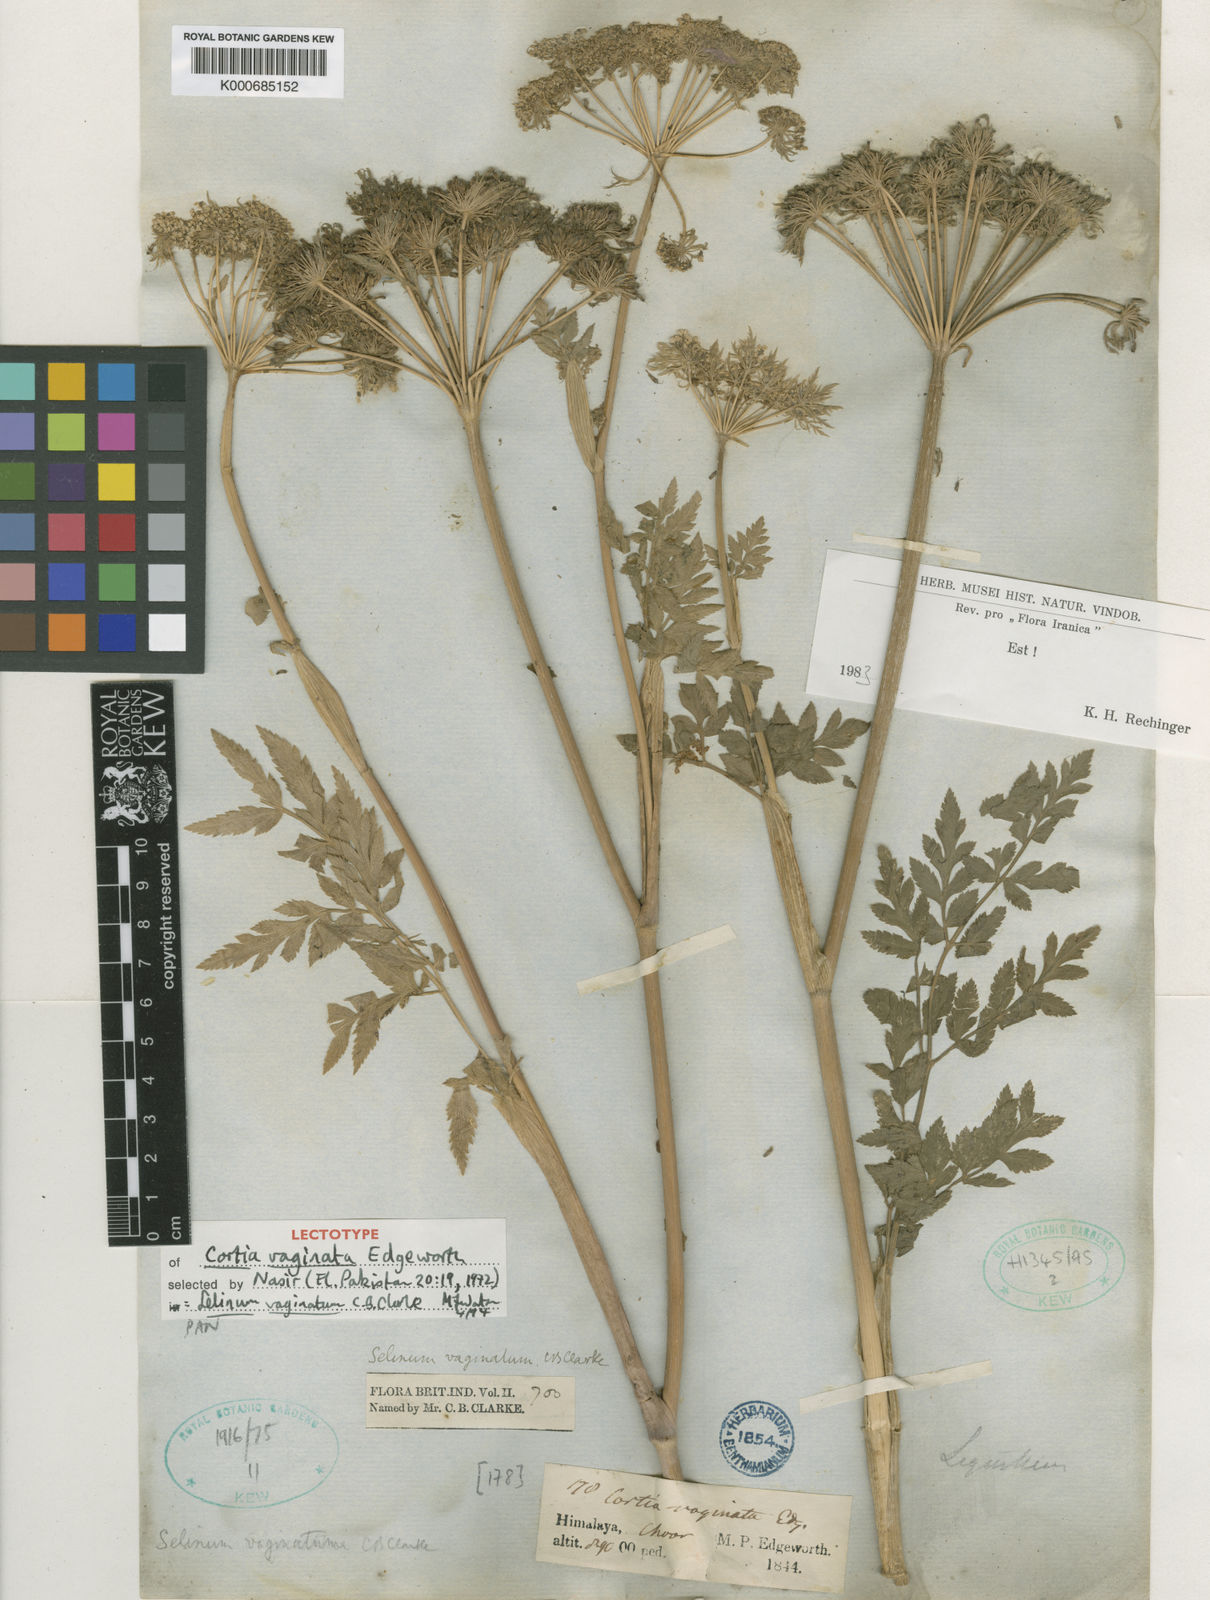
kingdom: Plantae
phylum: Tracheophyta
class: Magnoliopsida
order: Apiales
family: Apiaceae
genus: Selinum
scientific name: Selinum vaginatum
